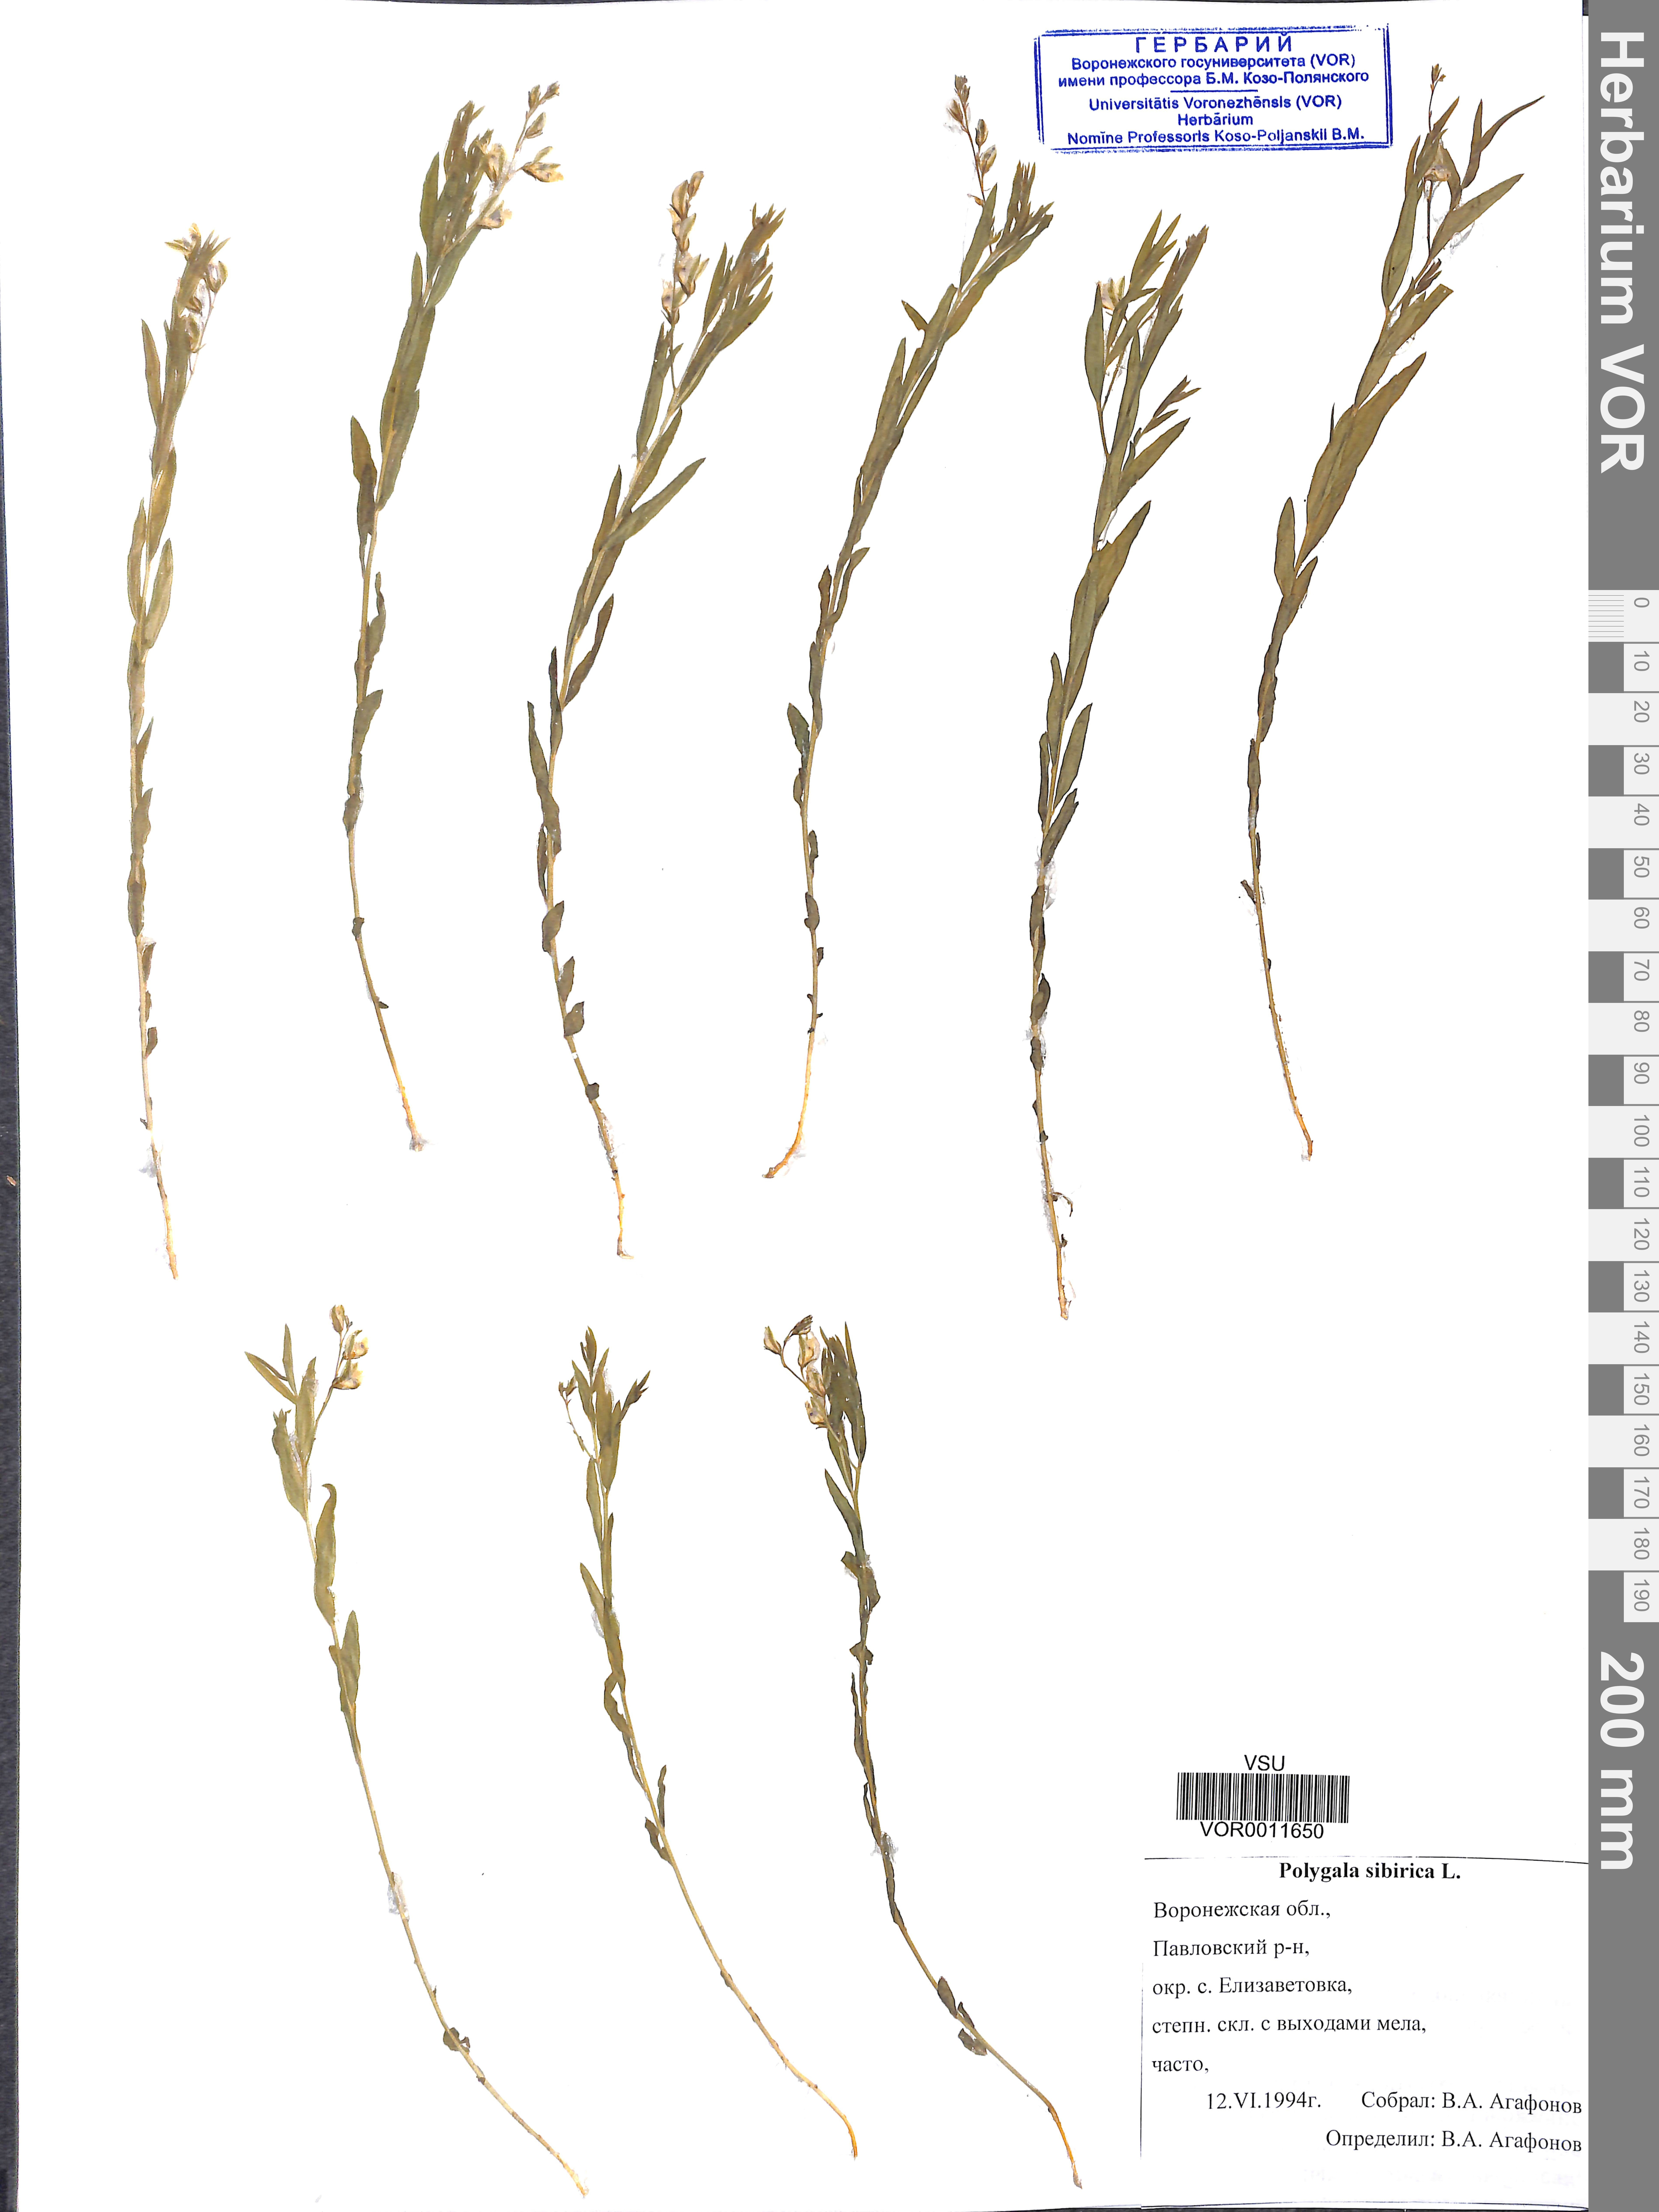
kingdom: Plantae
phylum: Tracheophyta
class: Magnoliopsida
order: Fabales
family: Polygalaceae
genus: Polygala
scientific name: Polygala sibirica
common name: Siberian polygala
